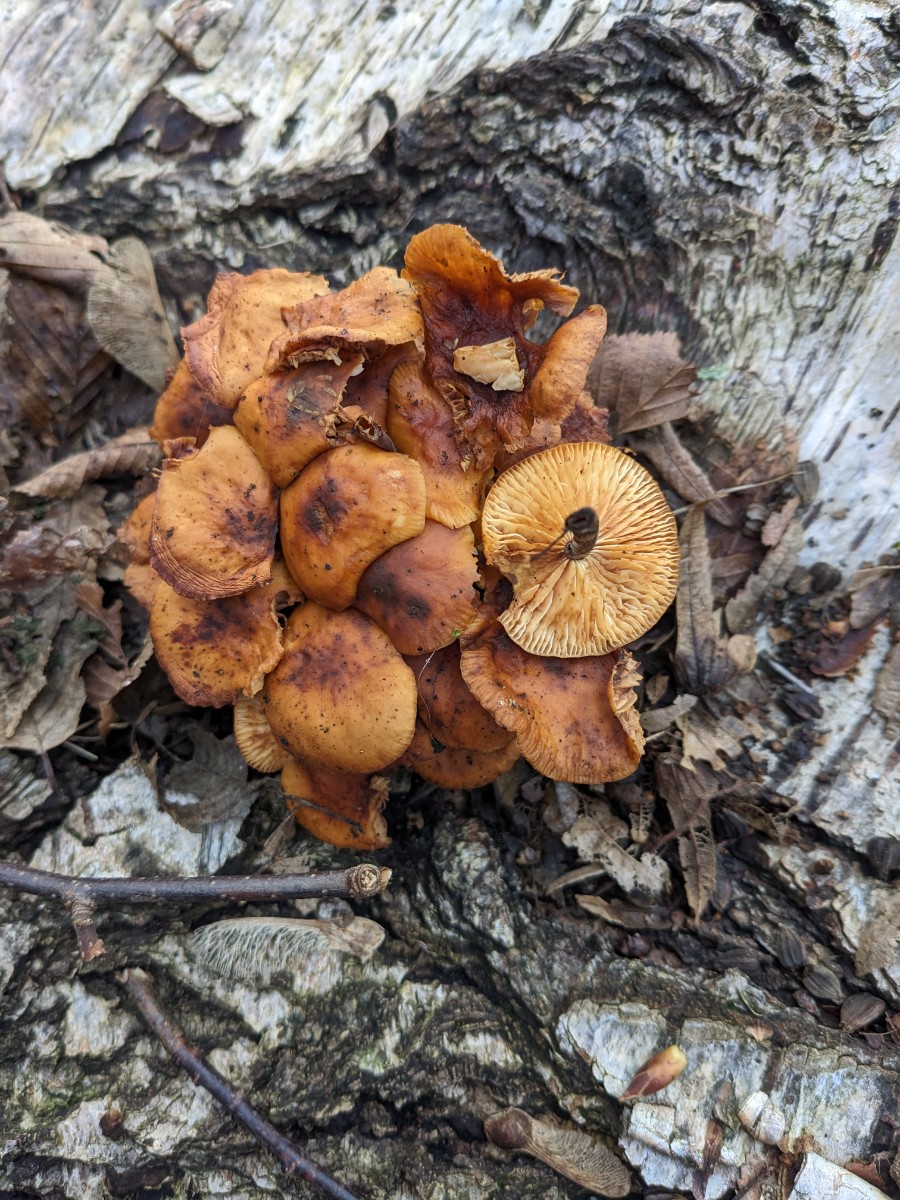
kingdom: Fungi
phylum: Basidiomycota
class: Agaricomycetes
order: Agaricales
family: Physalacriaceae
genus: Flammulina
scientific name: Flammulina velutipes
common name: gul fløjlsfod
